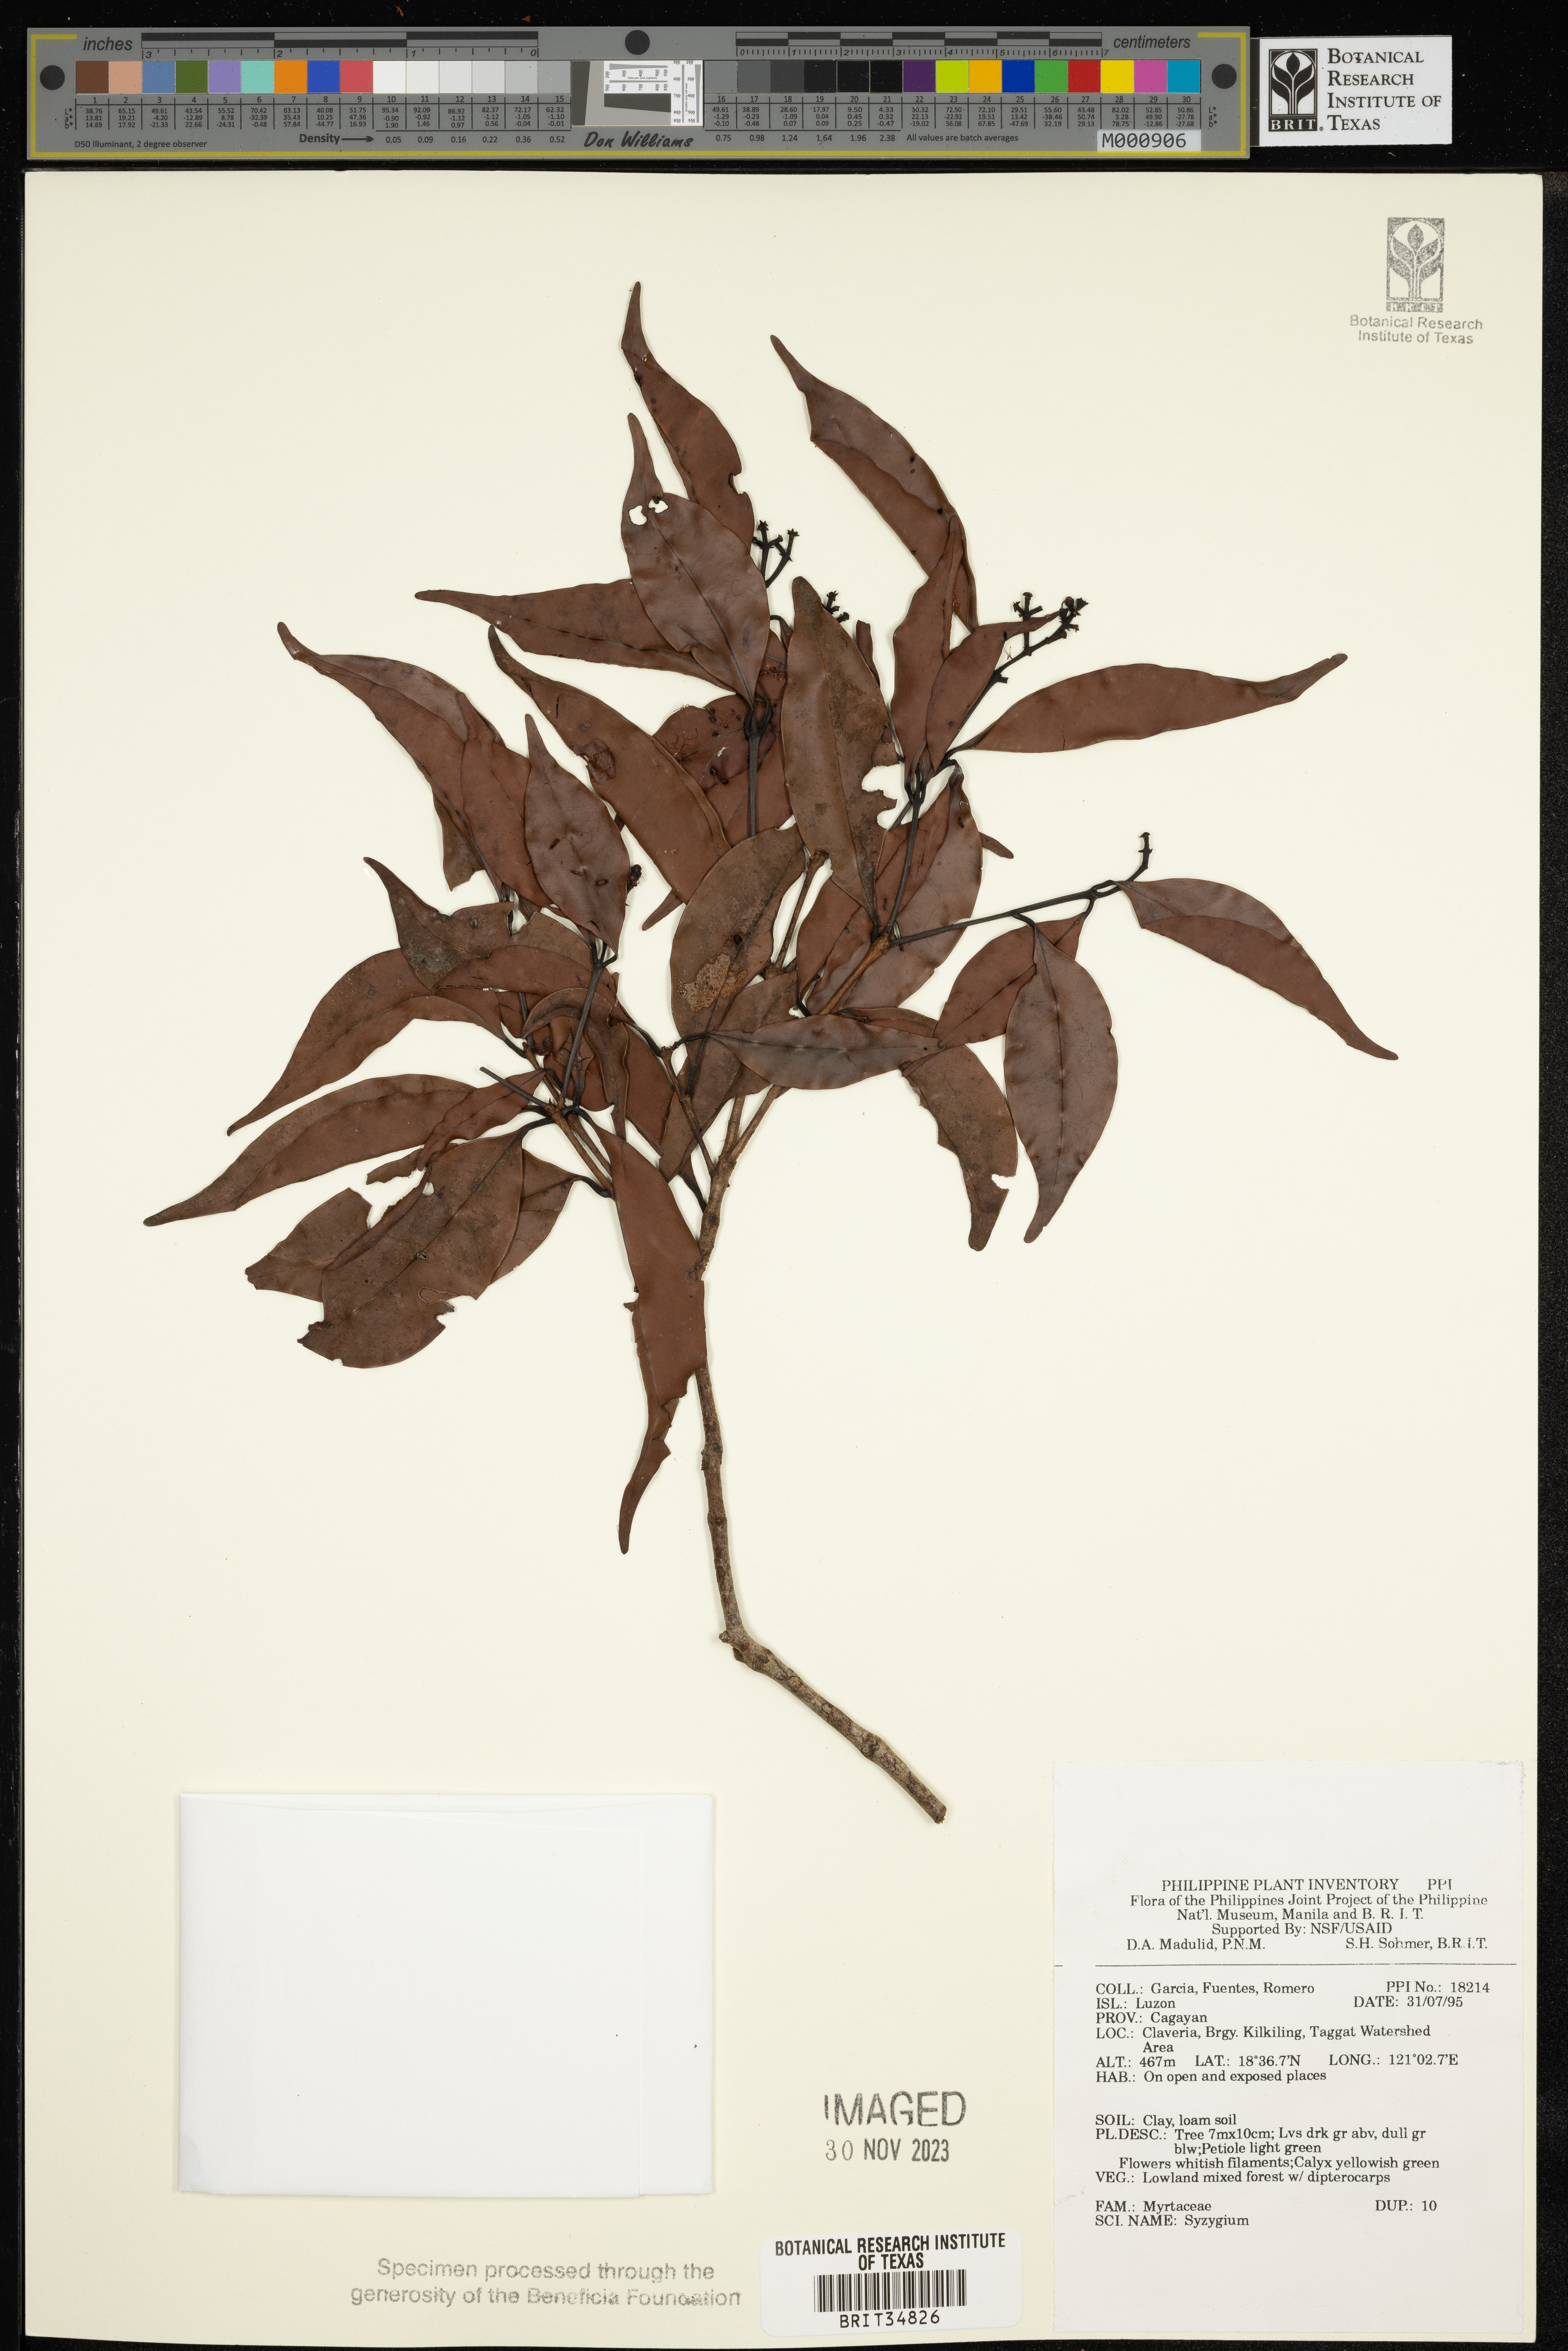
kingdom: Plantae
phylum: Tracheophyta
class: Magnoliopsida
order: Myrtales
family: Myrtaceae
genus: Syzygium
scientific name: Syzygium
